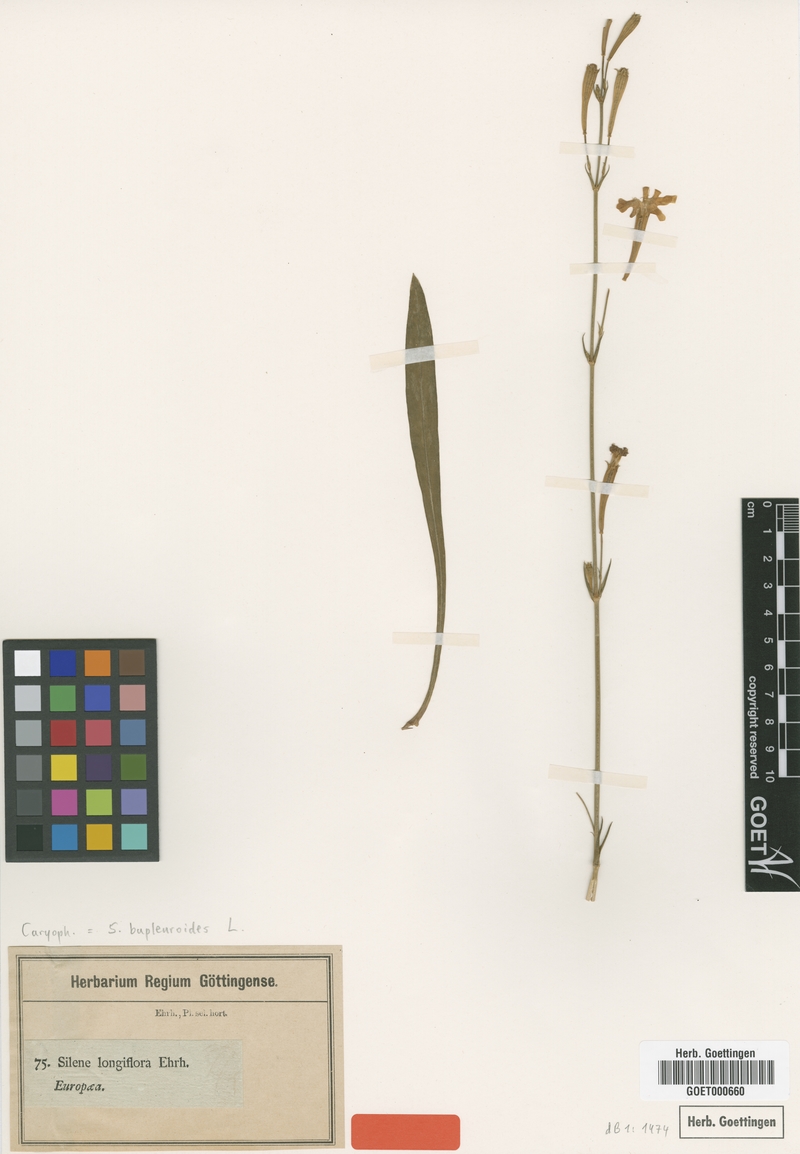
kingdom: Plantae
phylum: Tracheophyta
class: Magnoliopsida
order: Caryophyllales
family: Caryophyllaceae
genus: Silene
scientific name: Silene bupleuroides
